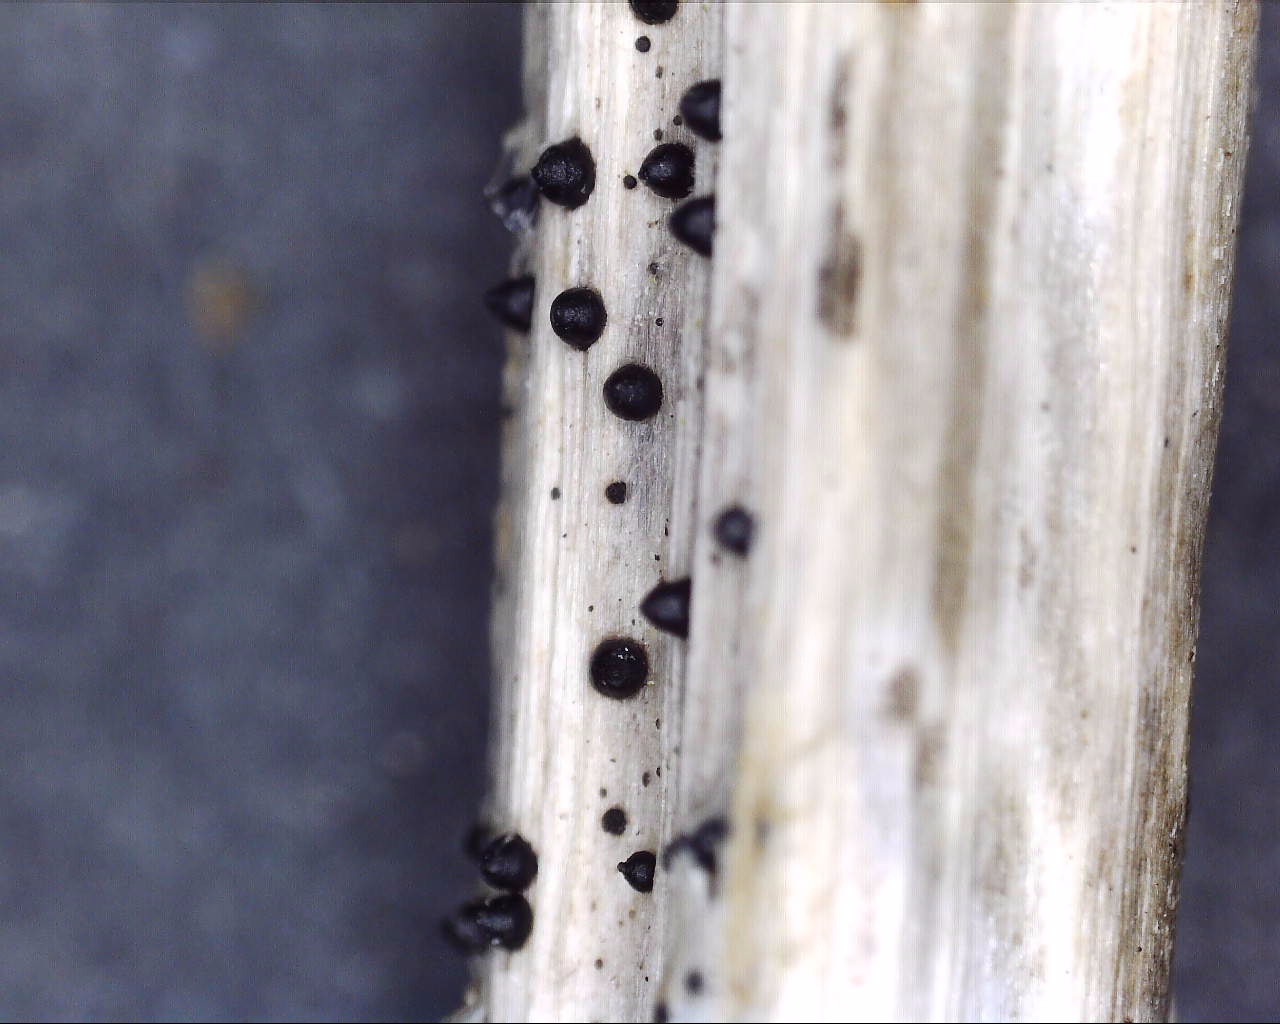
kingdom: Fungi
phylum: Ascomycota
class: Dothideomycetes
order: Pleosporales
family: Leptosphaeriaceae
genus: Leptosphaeria
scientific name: Leptosphaeria acuta
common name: spids kulkegle
